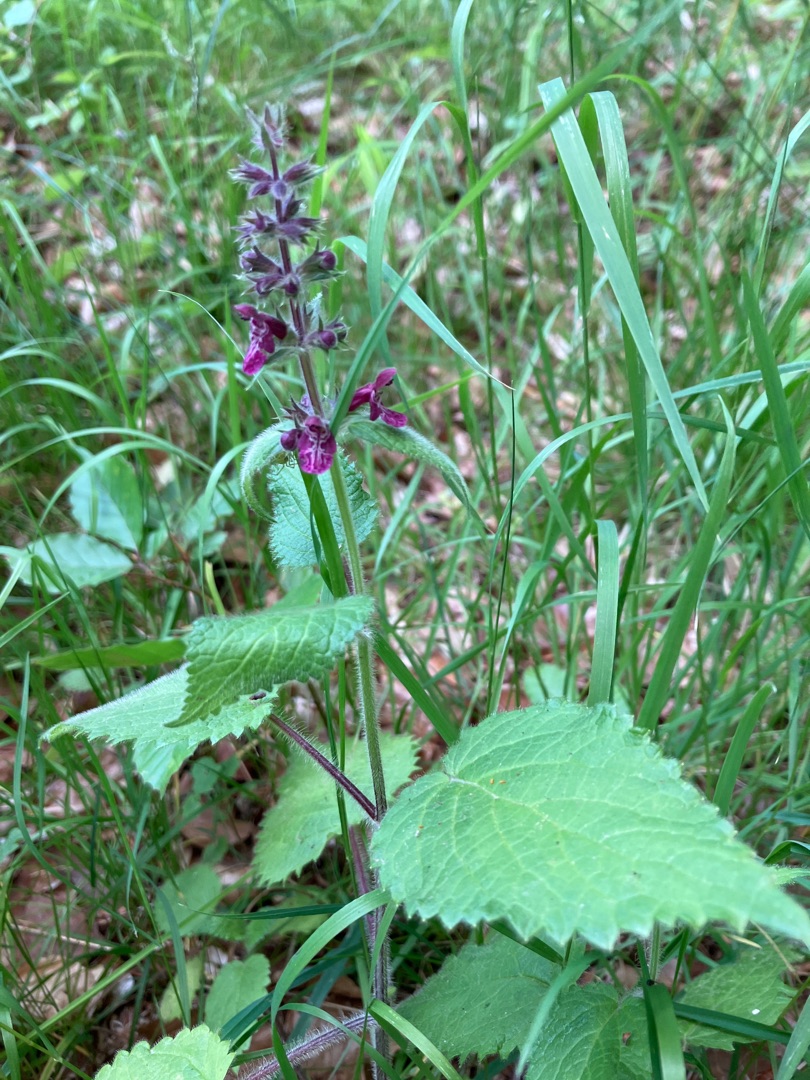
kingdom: Plantae
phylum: Tracheophyta
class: Magnoliopsida
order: Lamiales
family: Lamiaceae
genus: Stachys
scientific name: Stachys sylvatica
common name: Skov-galtetand
